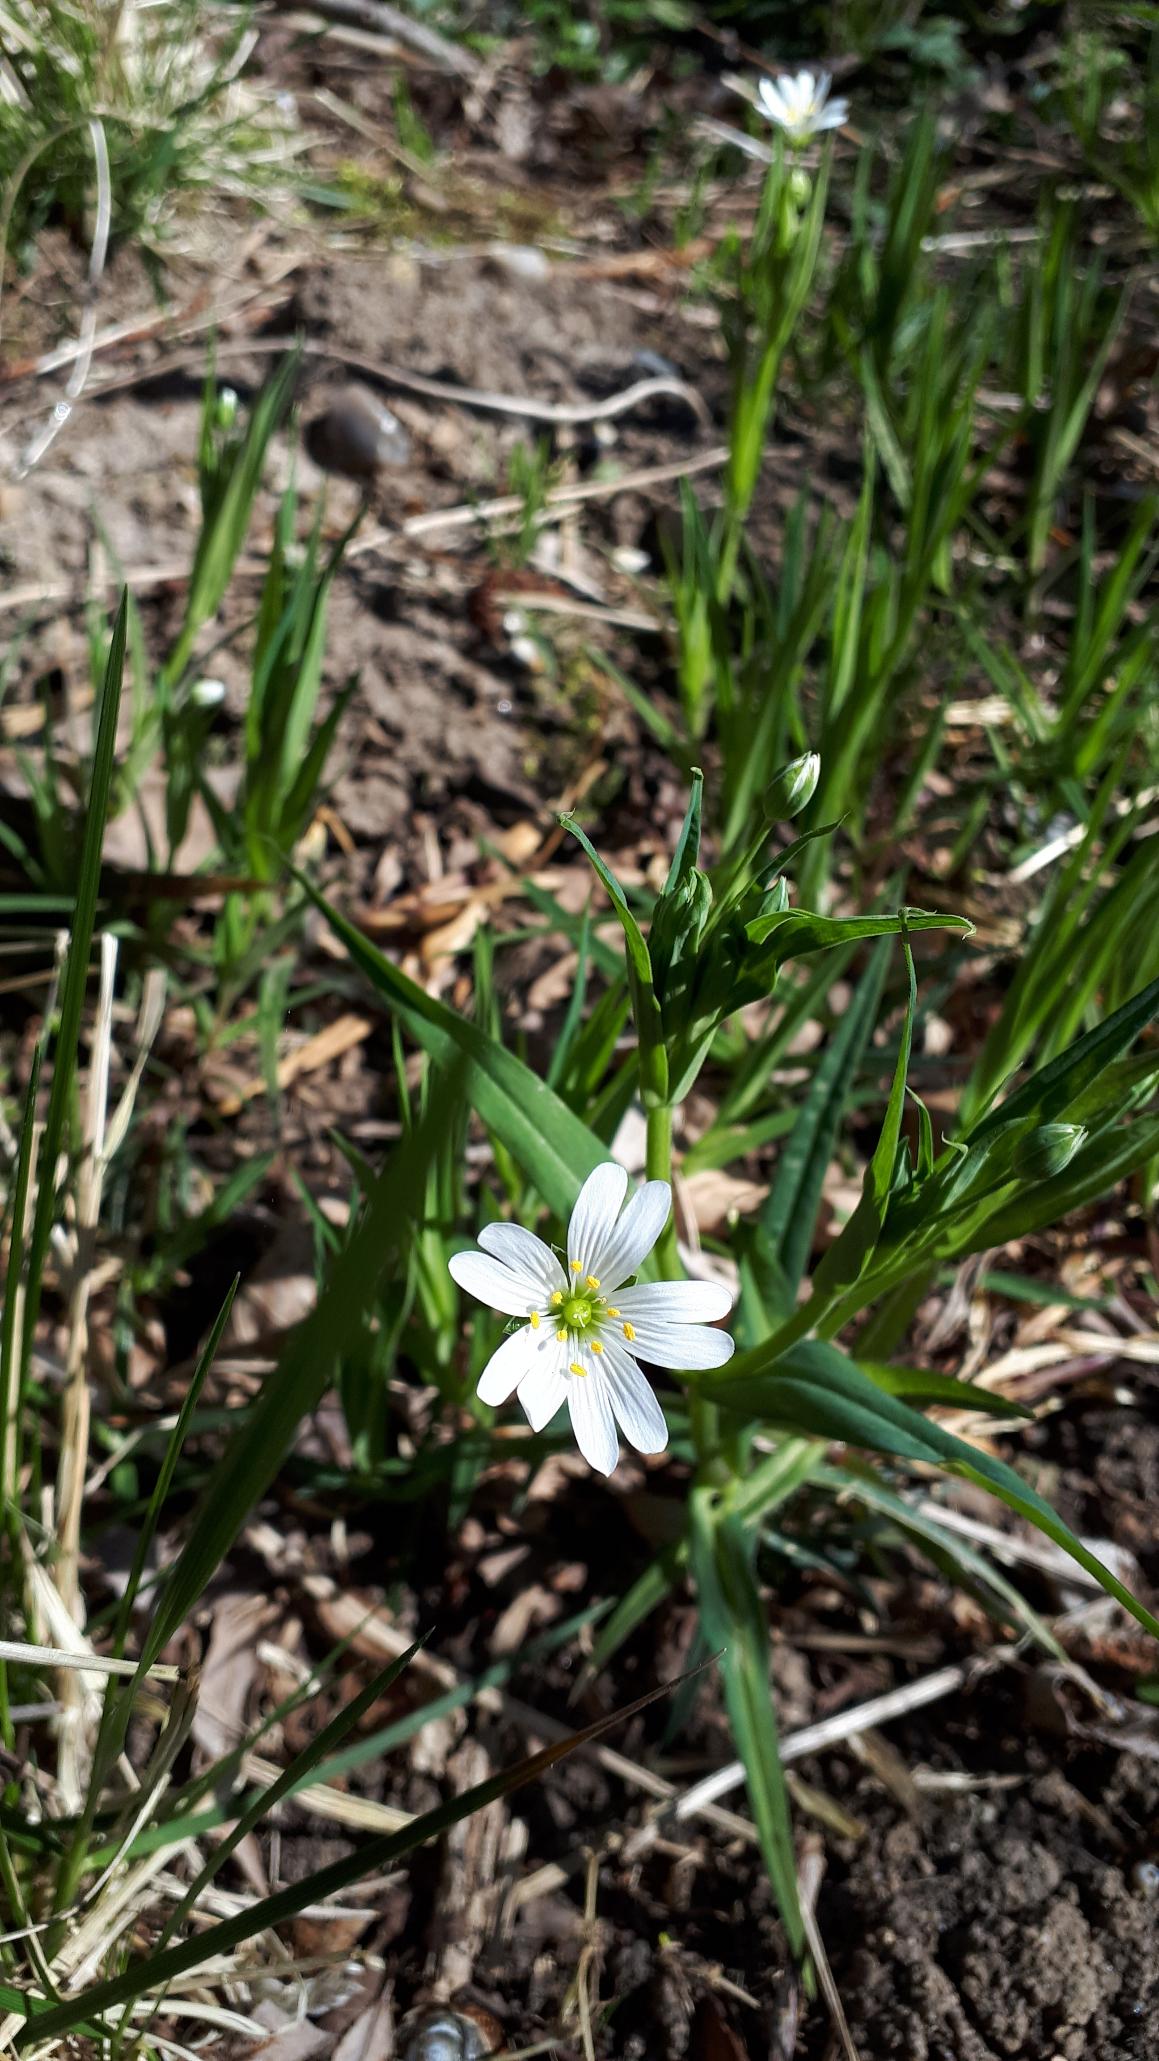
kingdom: Plantae
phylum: Tracheophyta
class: Magnoliopsida
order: Caryophyllales
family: Caryophyllaceae
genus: Rabelera
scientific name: Rabelera holostea
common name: Stor fladstjerne
